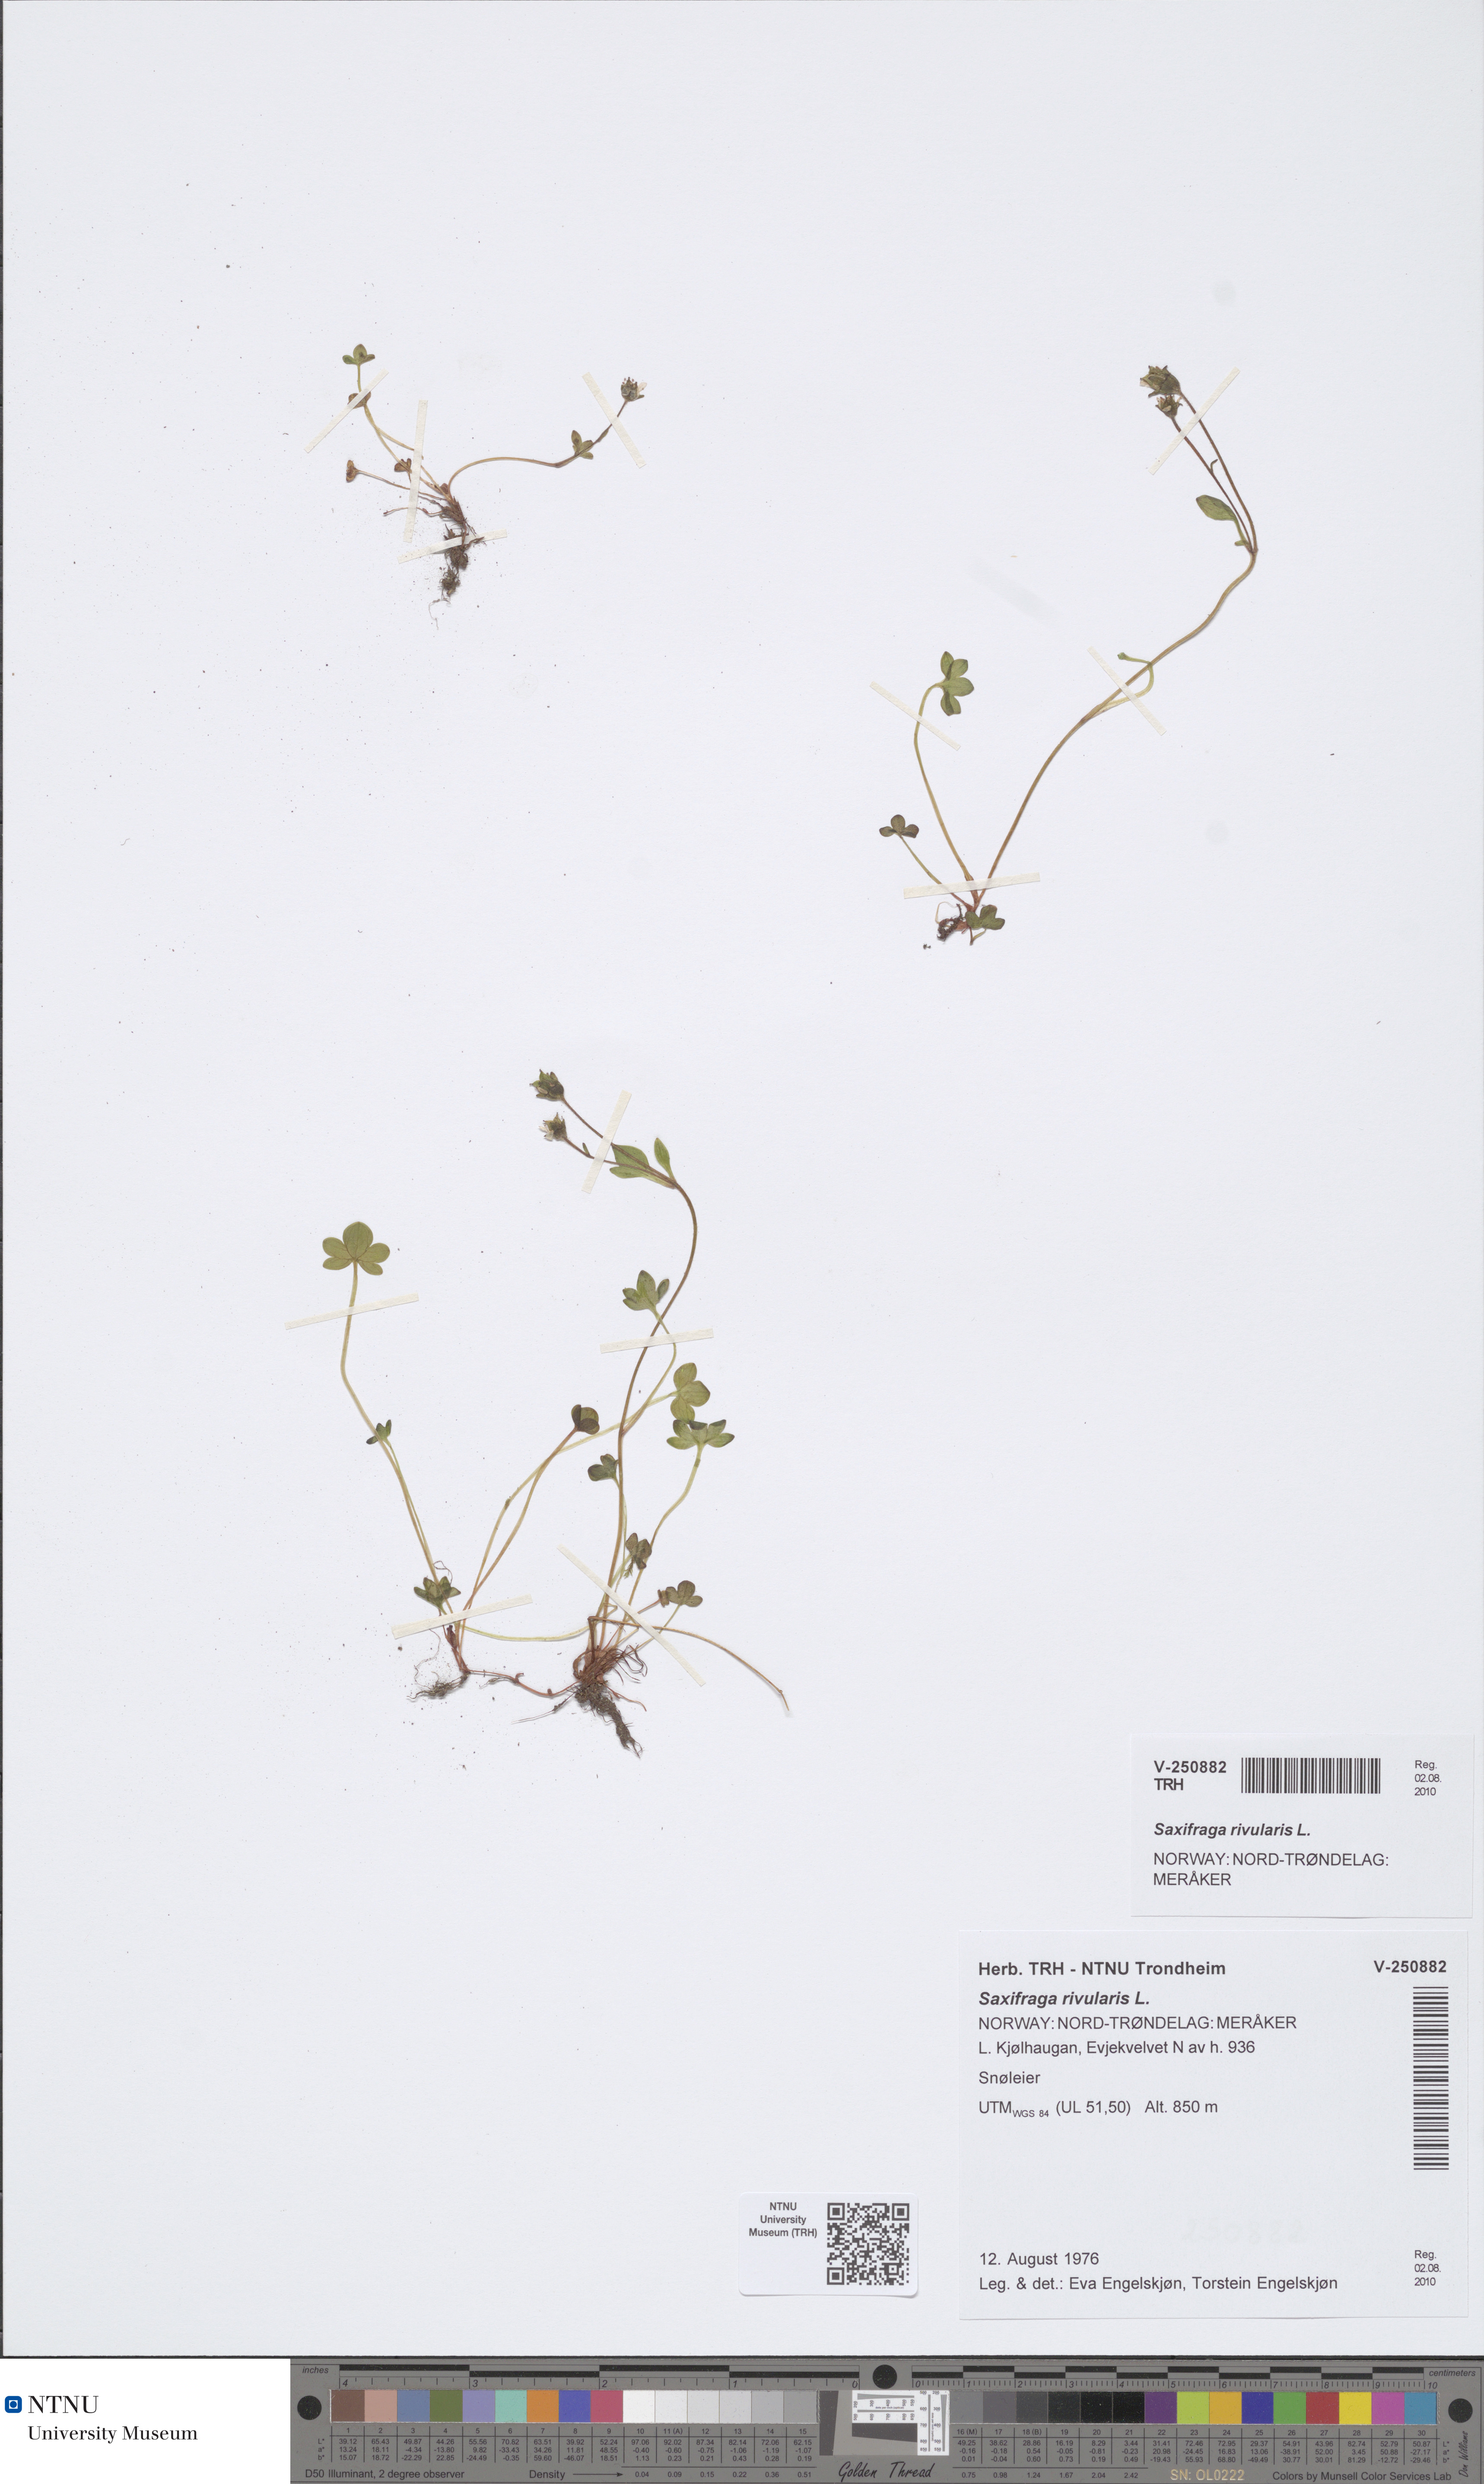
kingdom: Plantae
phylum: Tracheophyta
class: Magnoliopsida
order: Saxifragales
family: Saxifragaceae
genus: Saxifraga
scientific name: Saxifraga rivularis
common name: Highland saxifrage
